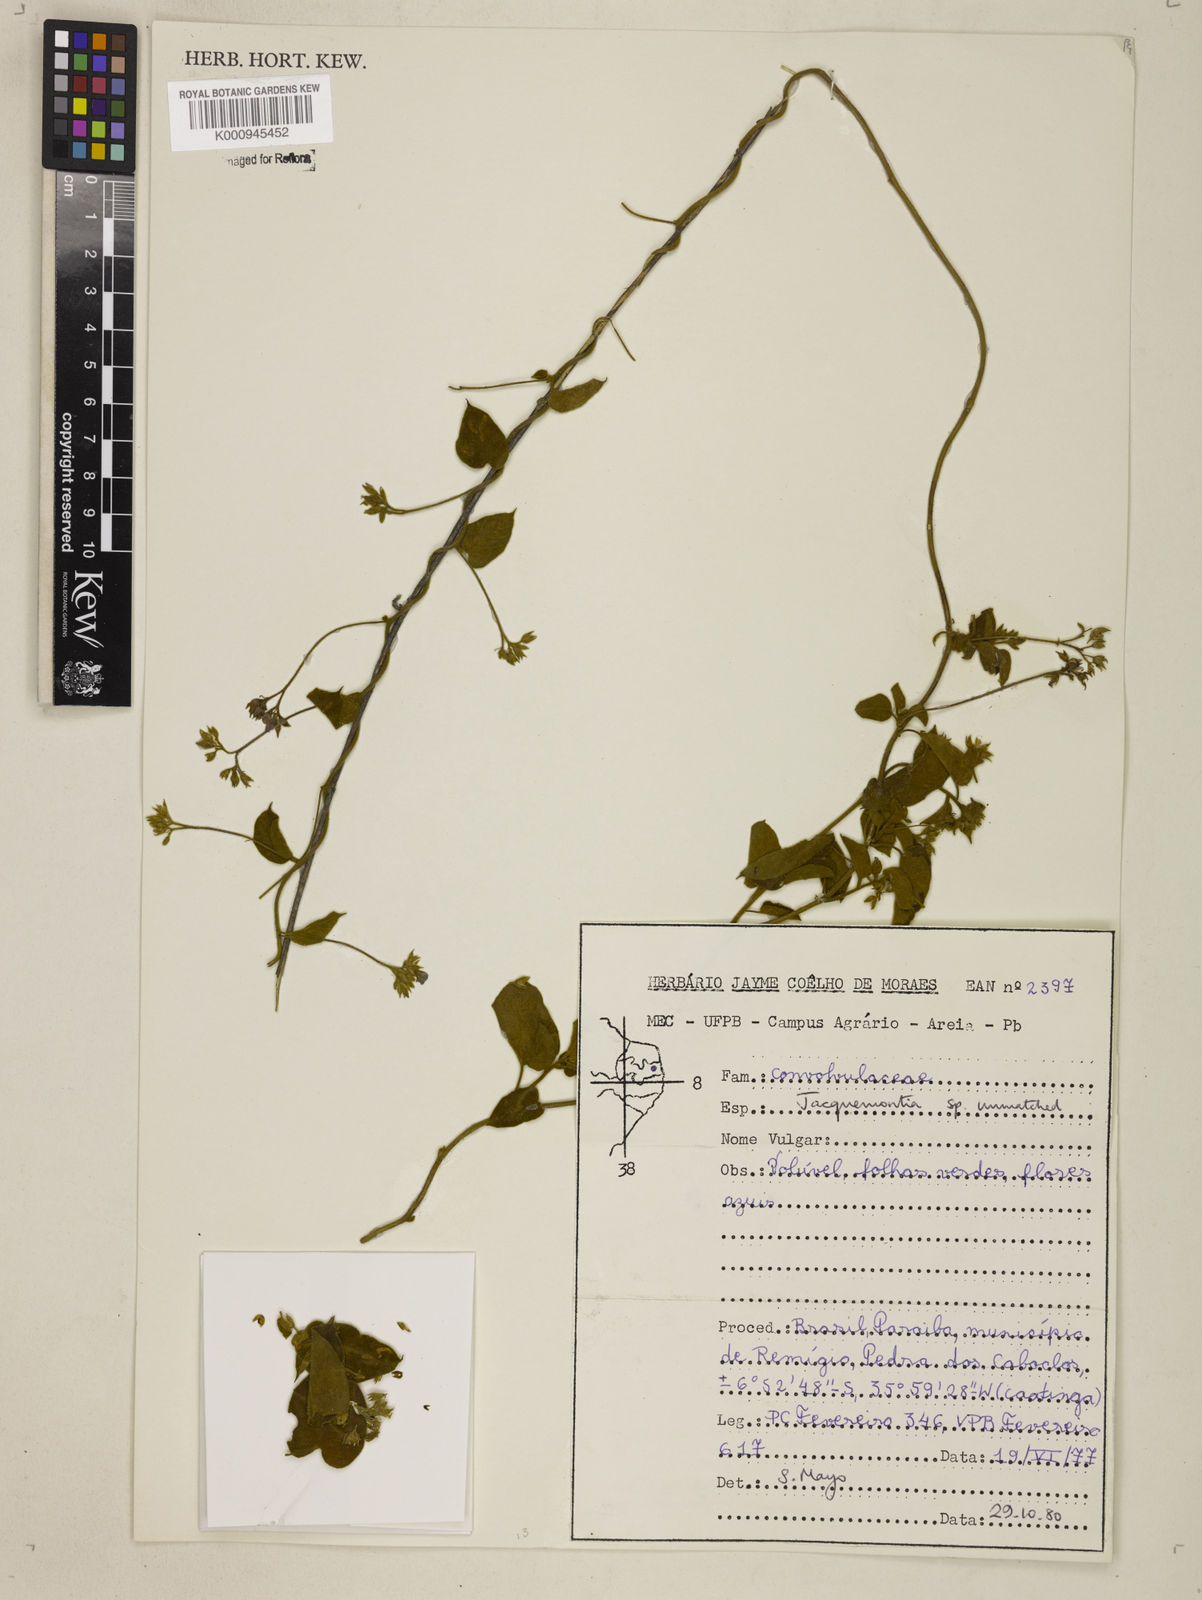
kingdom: Plantae
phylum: Tracheophyta
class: Magnoliopsida
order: Solanales
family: Convolvulaceae
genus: Jacquemontia
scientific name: Jacquemontia
